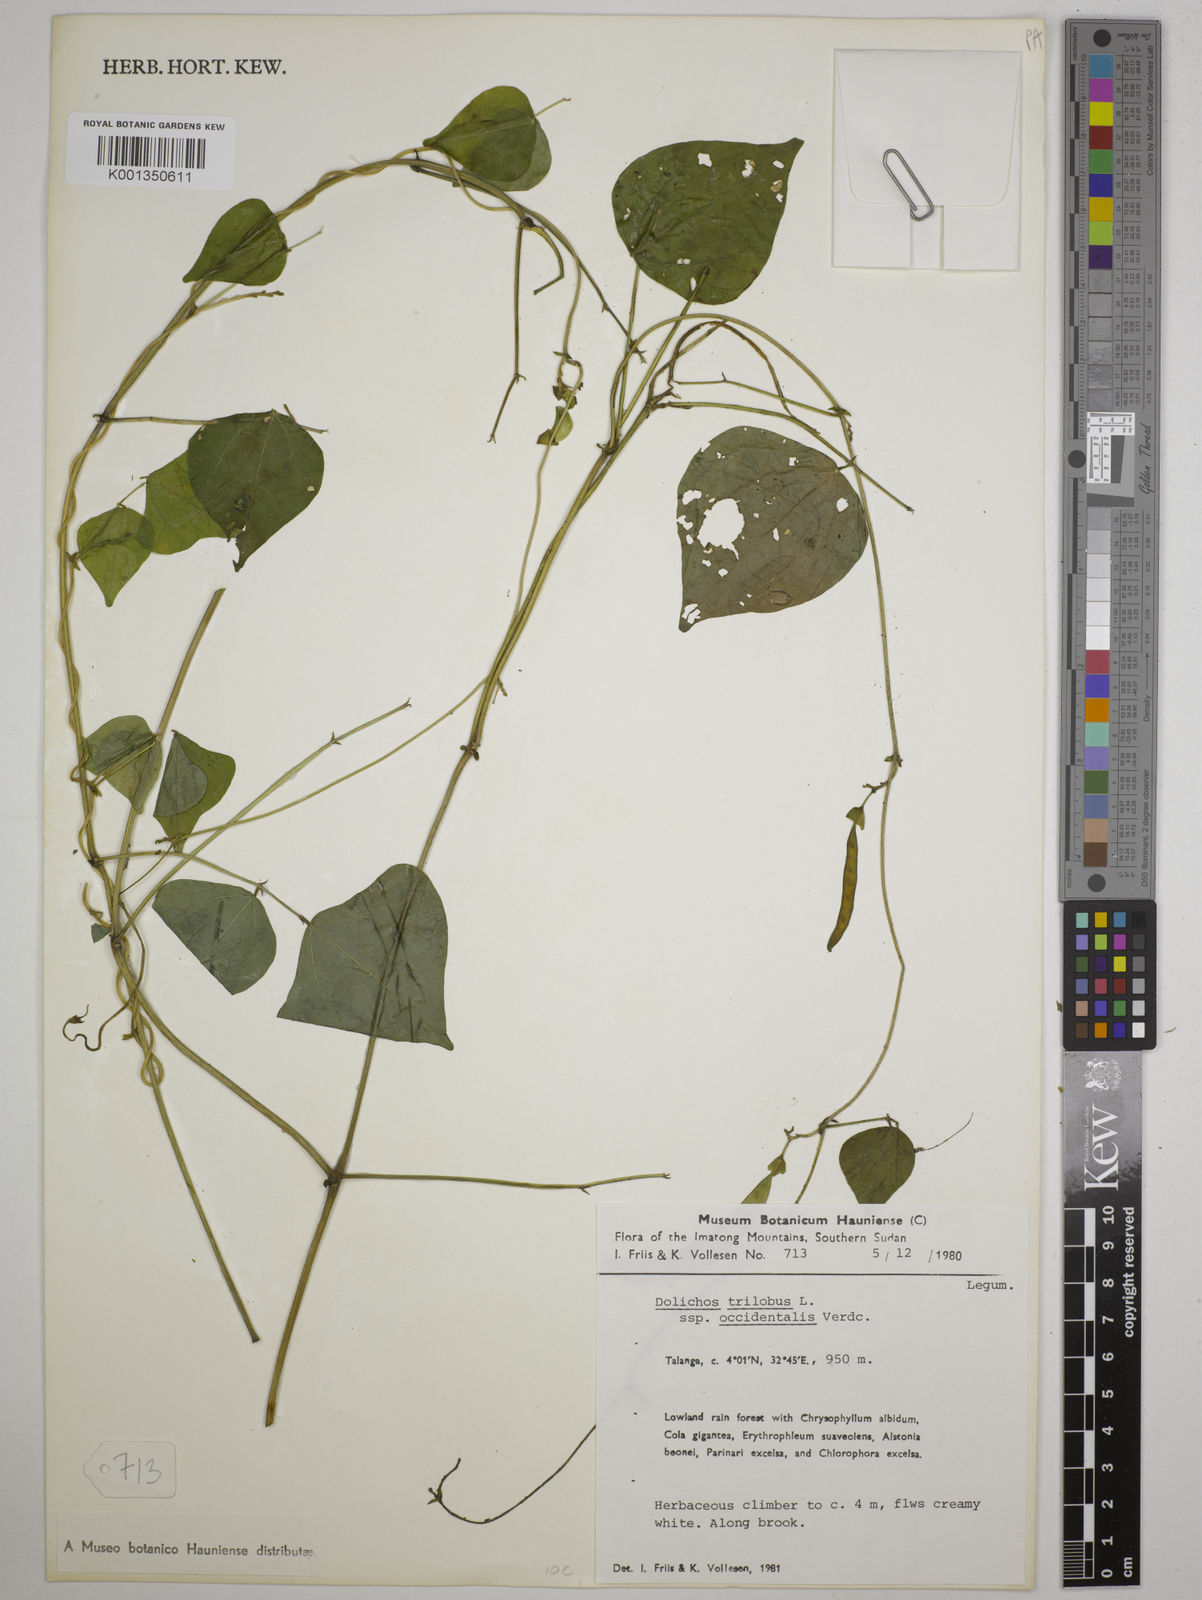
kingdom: Plantae
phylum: Tracheophyta
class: Magnoliopsida
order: Fabales
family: Fabaceae
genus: Dolichos
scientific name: Dolichos trilobus
